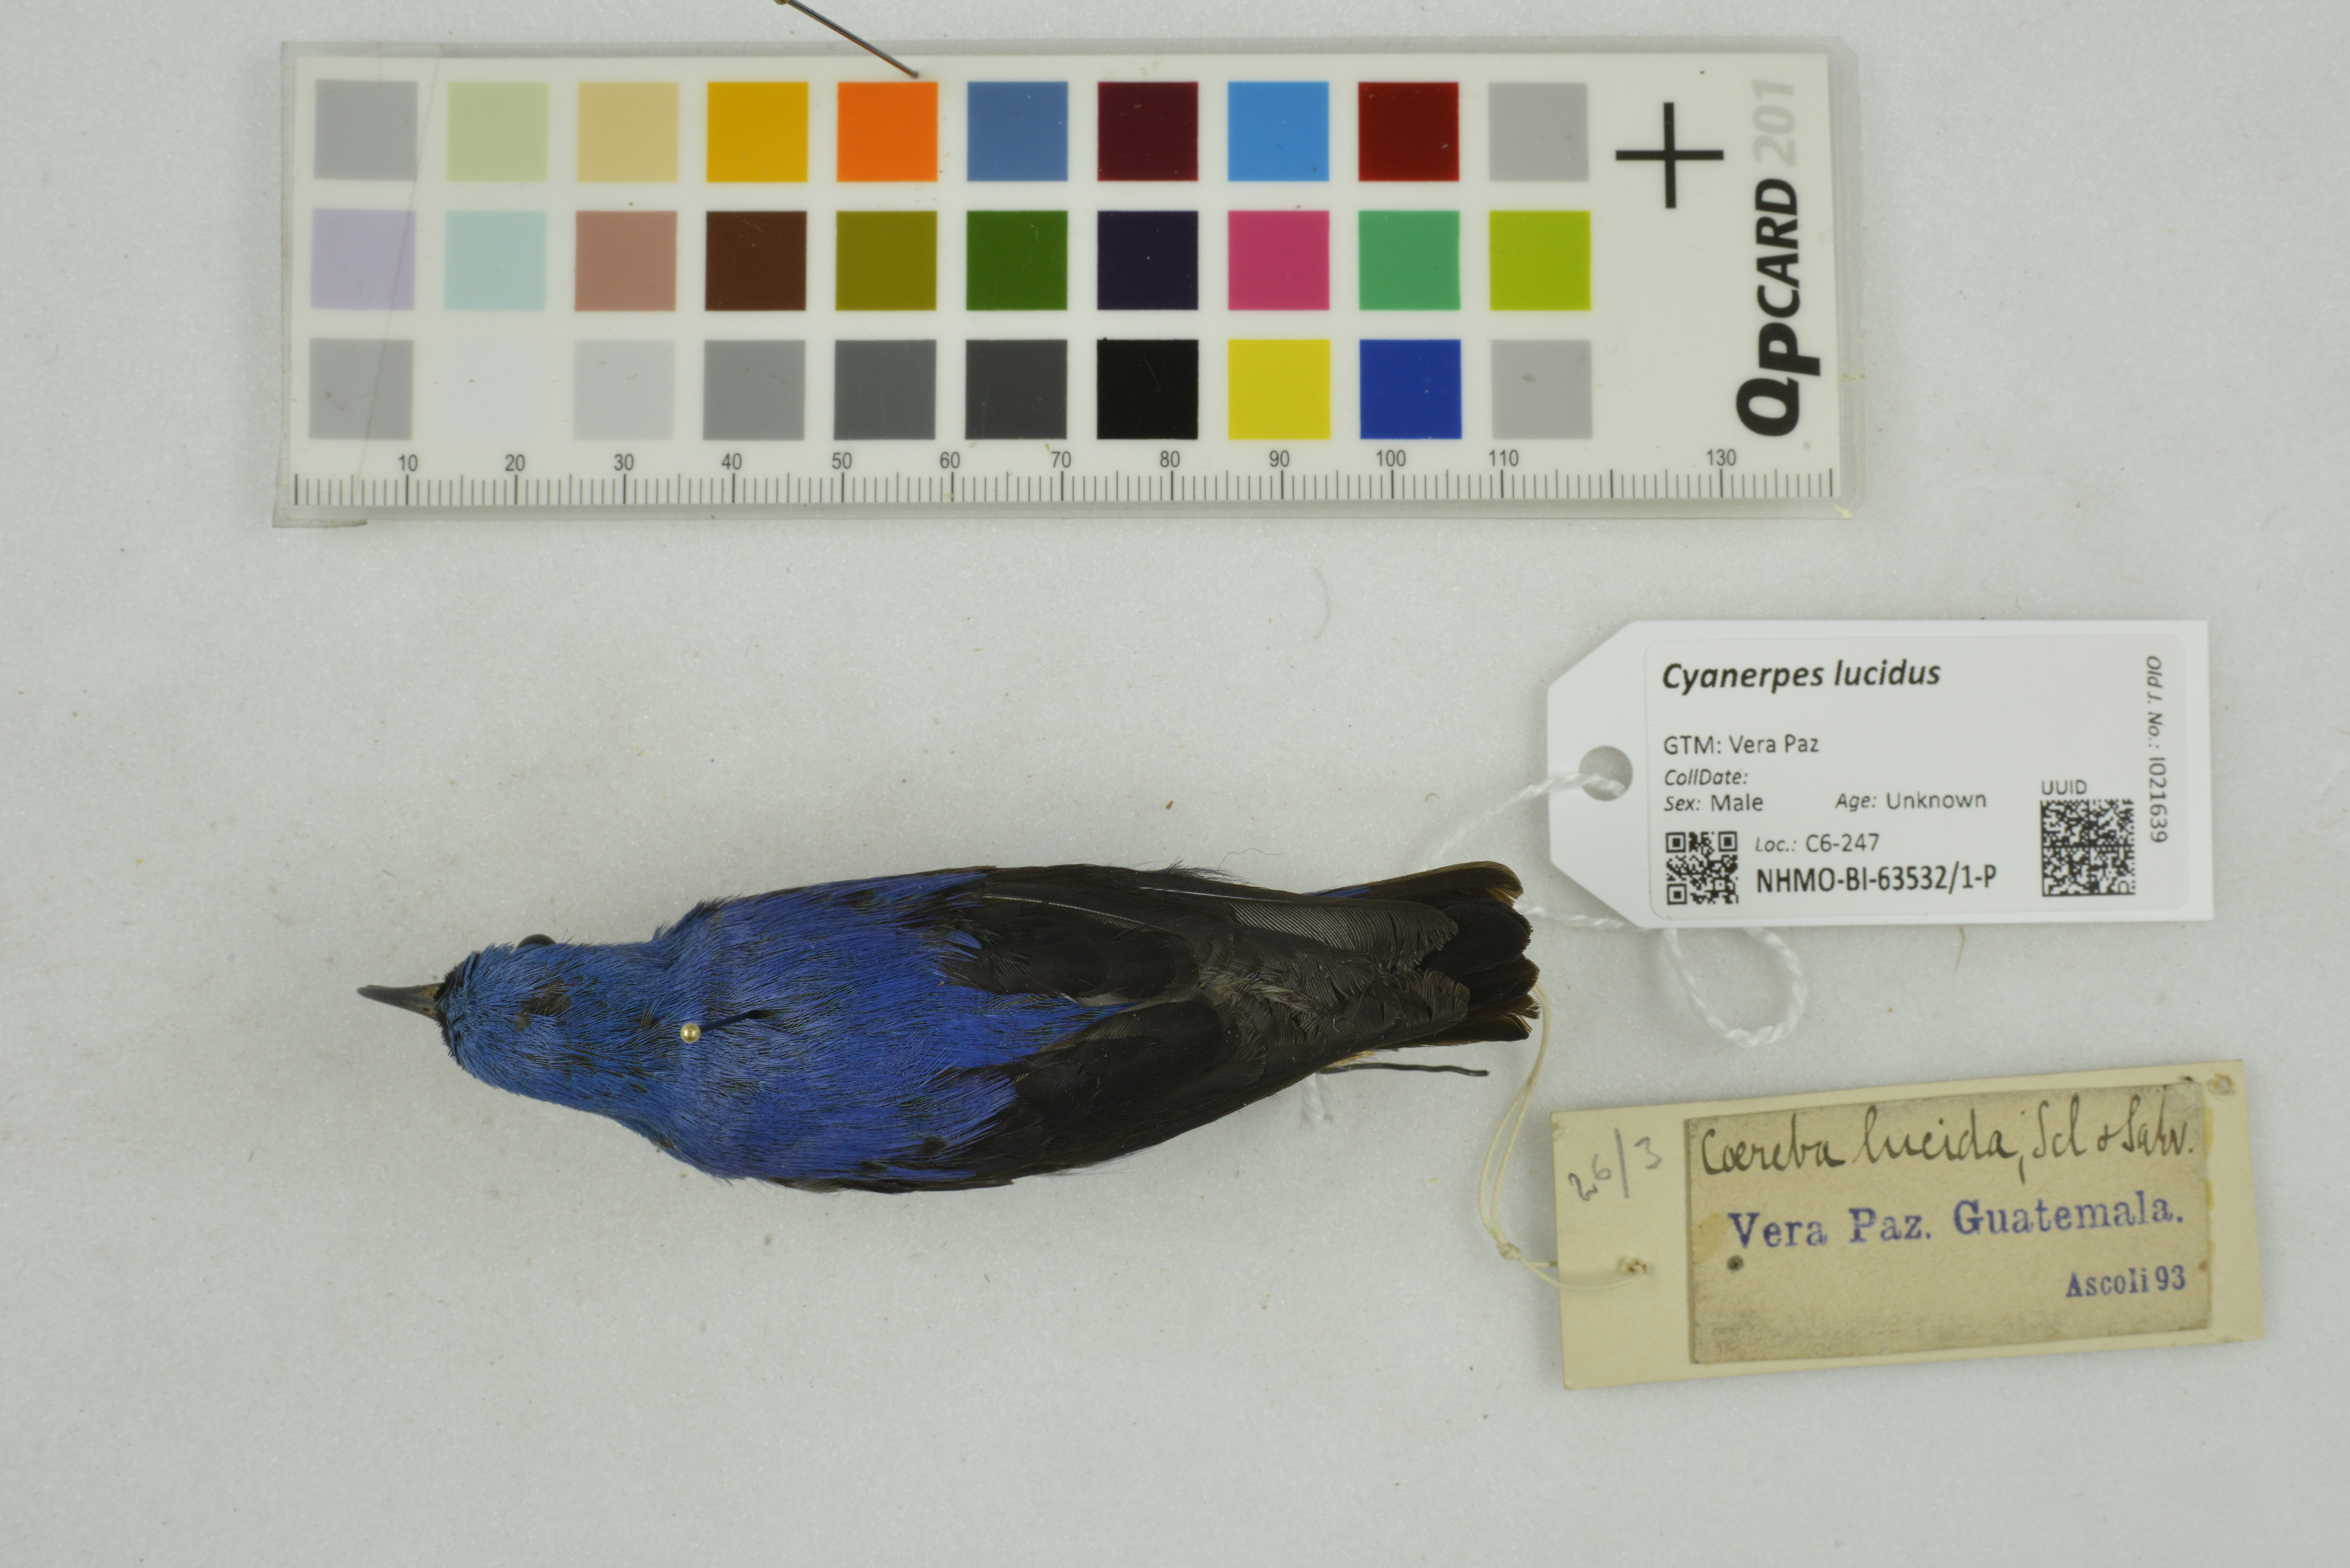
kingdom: Animalia
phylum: Chordata
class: Aves
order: Passeriformes
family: Thraupidae
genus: Cyanerpes
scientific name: Cyanerpes lucidus
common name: Shining honeycreeper
